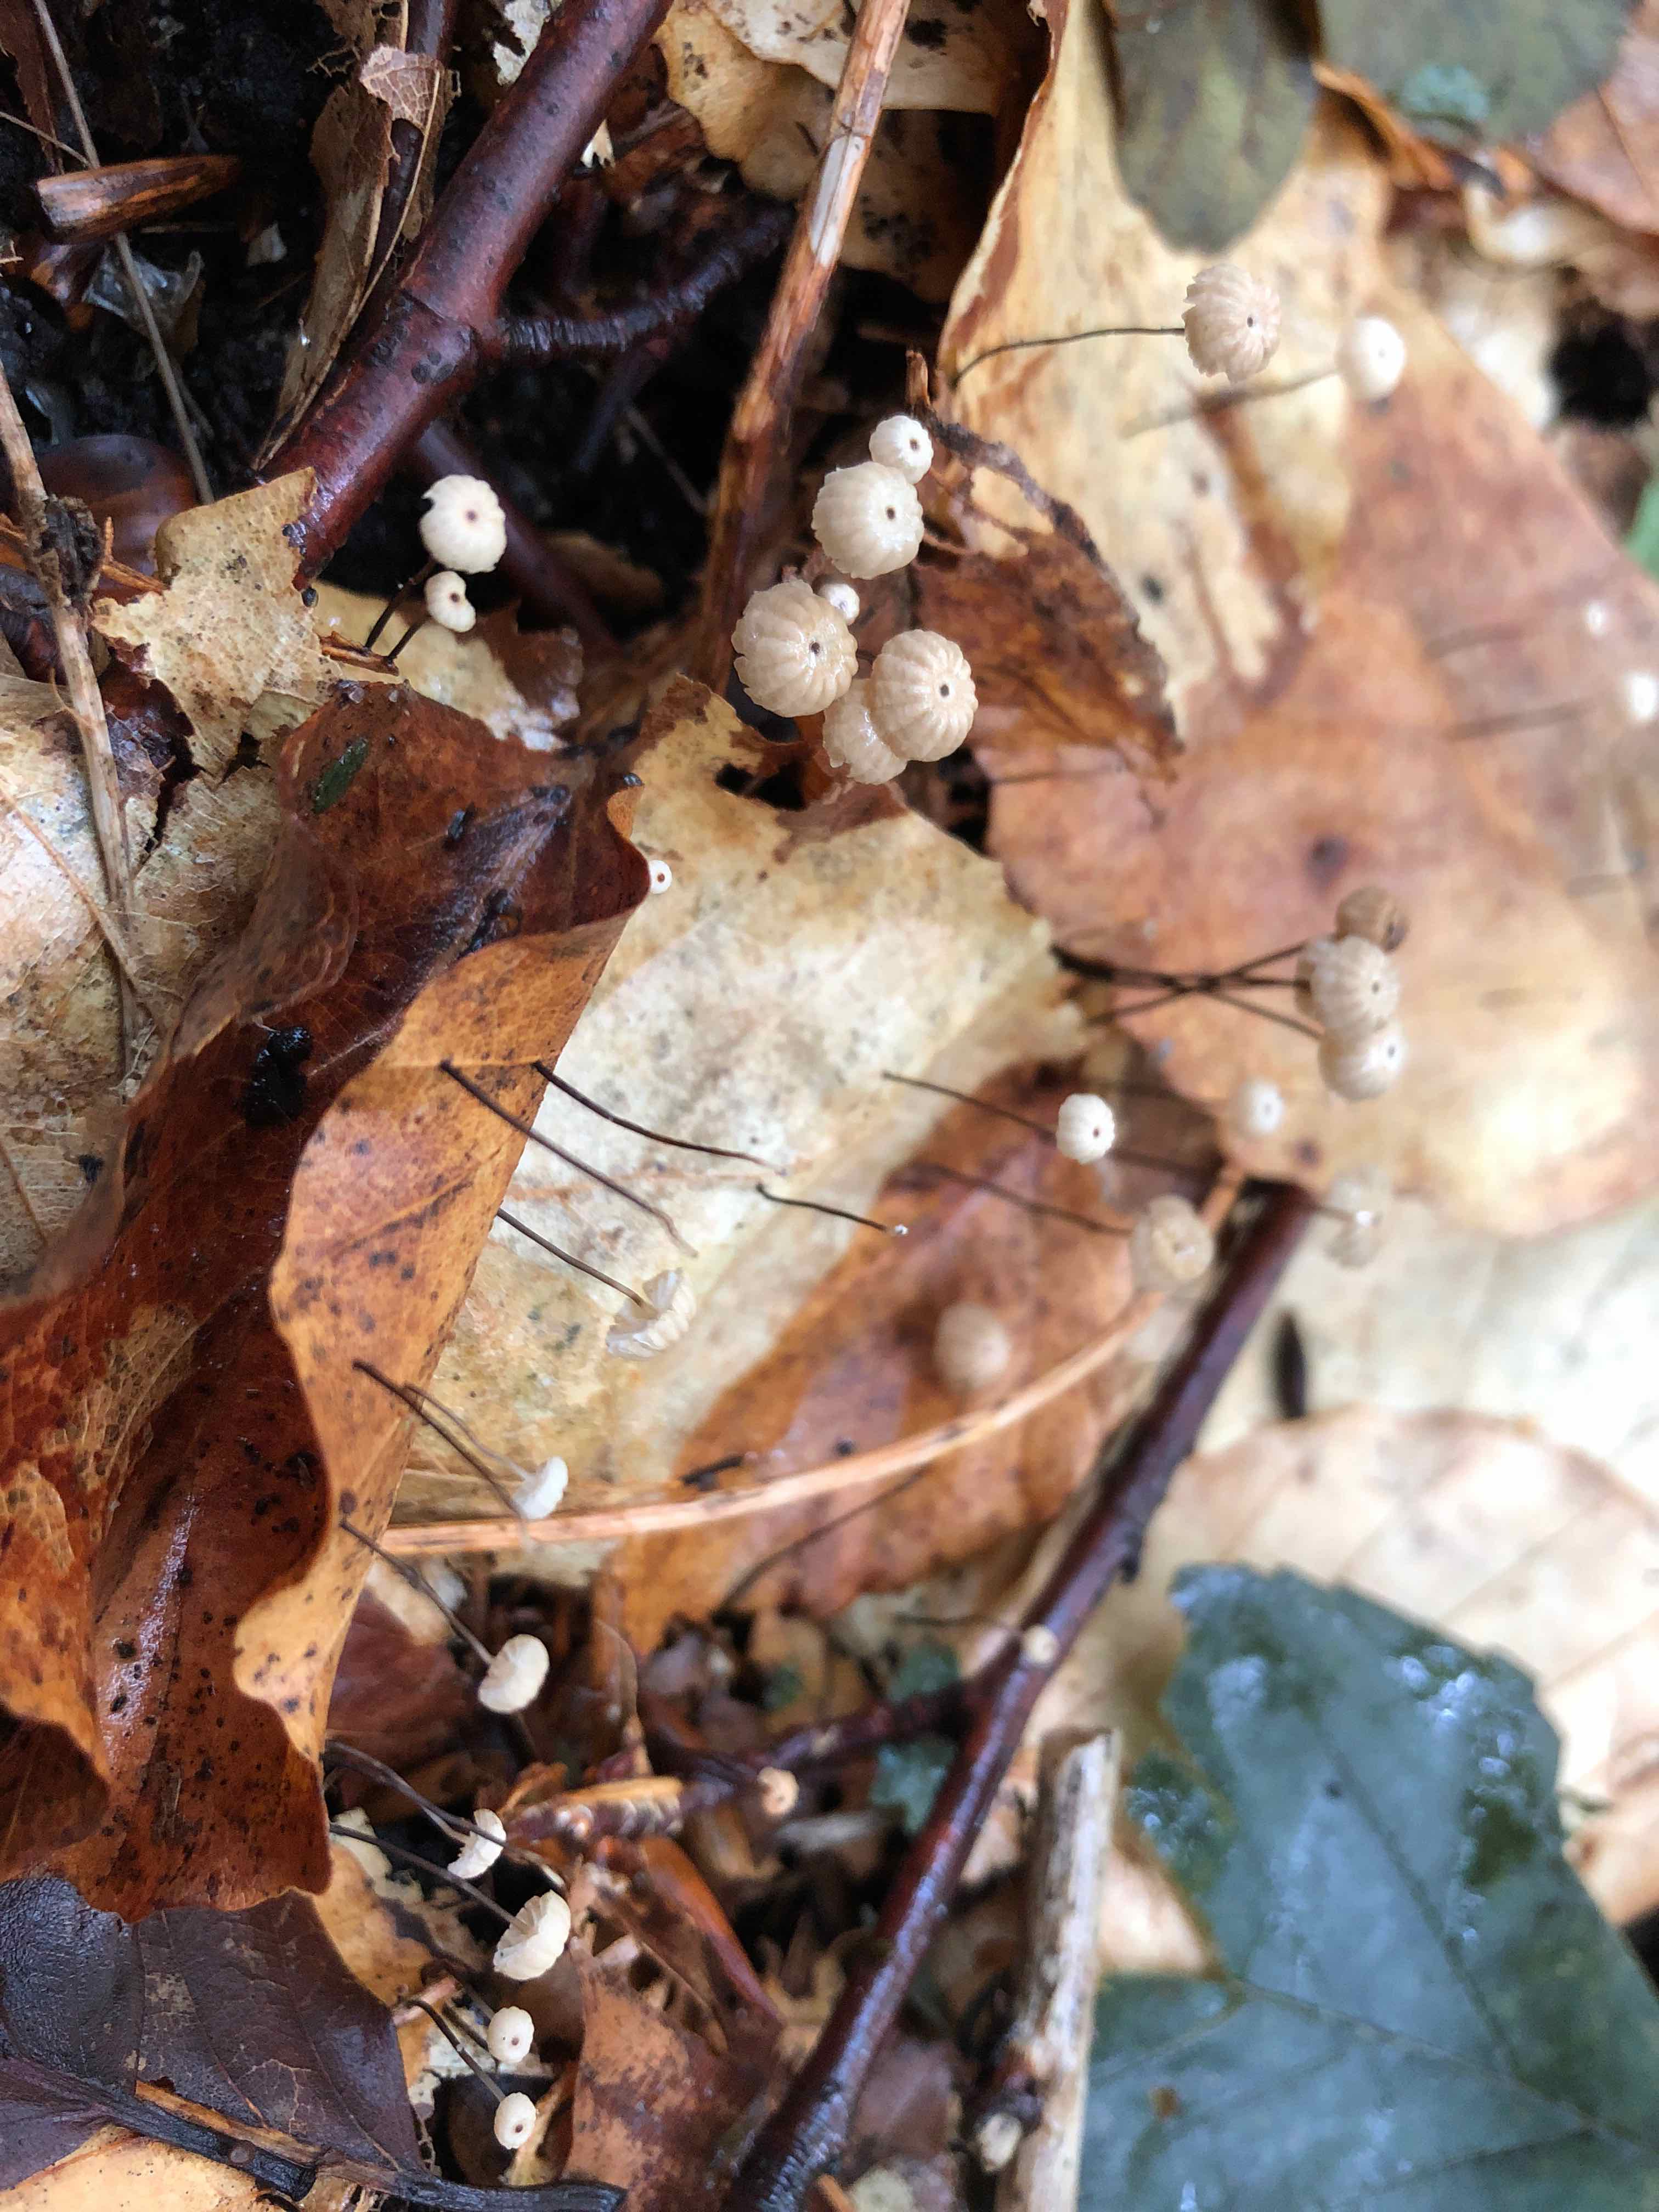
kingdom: Fungi
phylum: Basidiomycota
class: Agaricomycetes
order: Agaricales
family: Marasmiaceae
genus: Marasmius
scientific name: Marasmius bulliardii
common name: furet bruskhat
